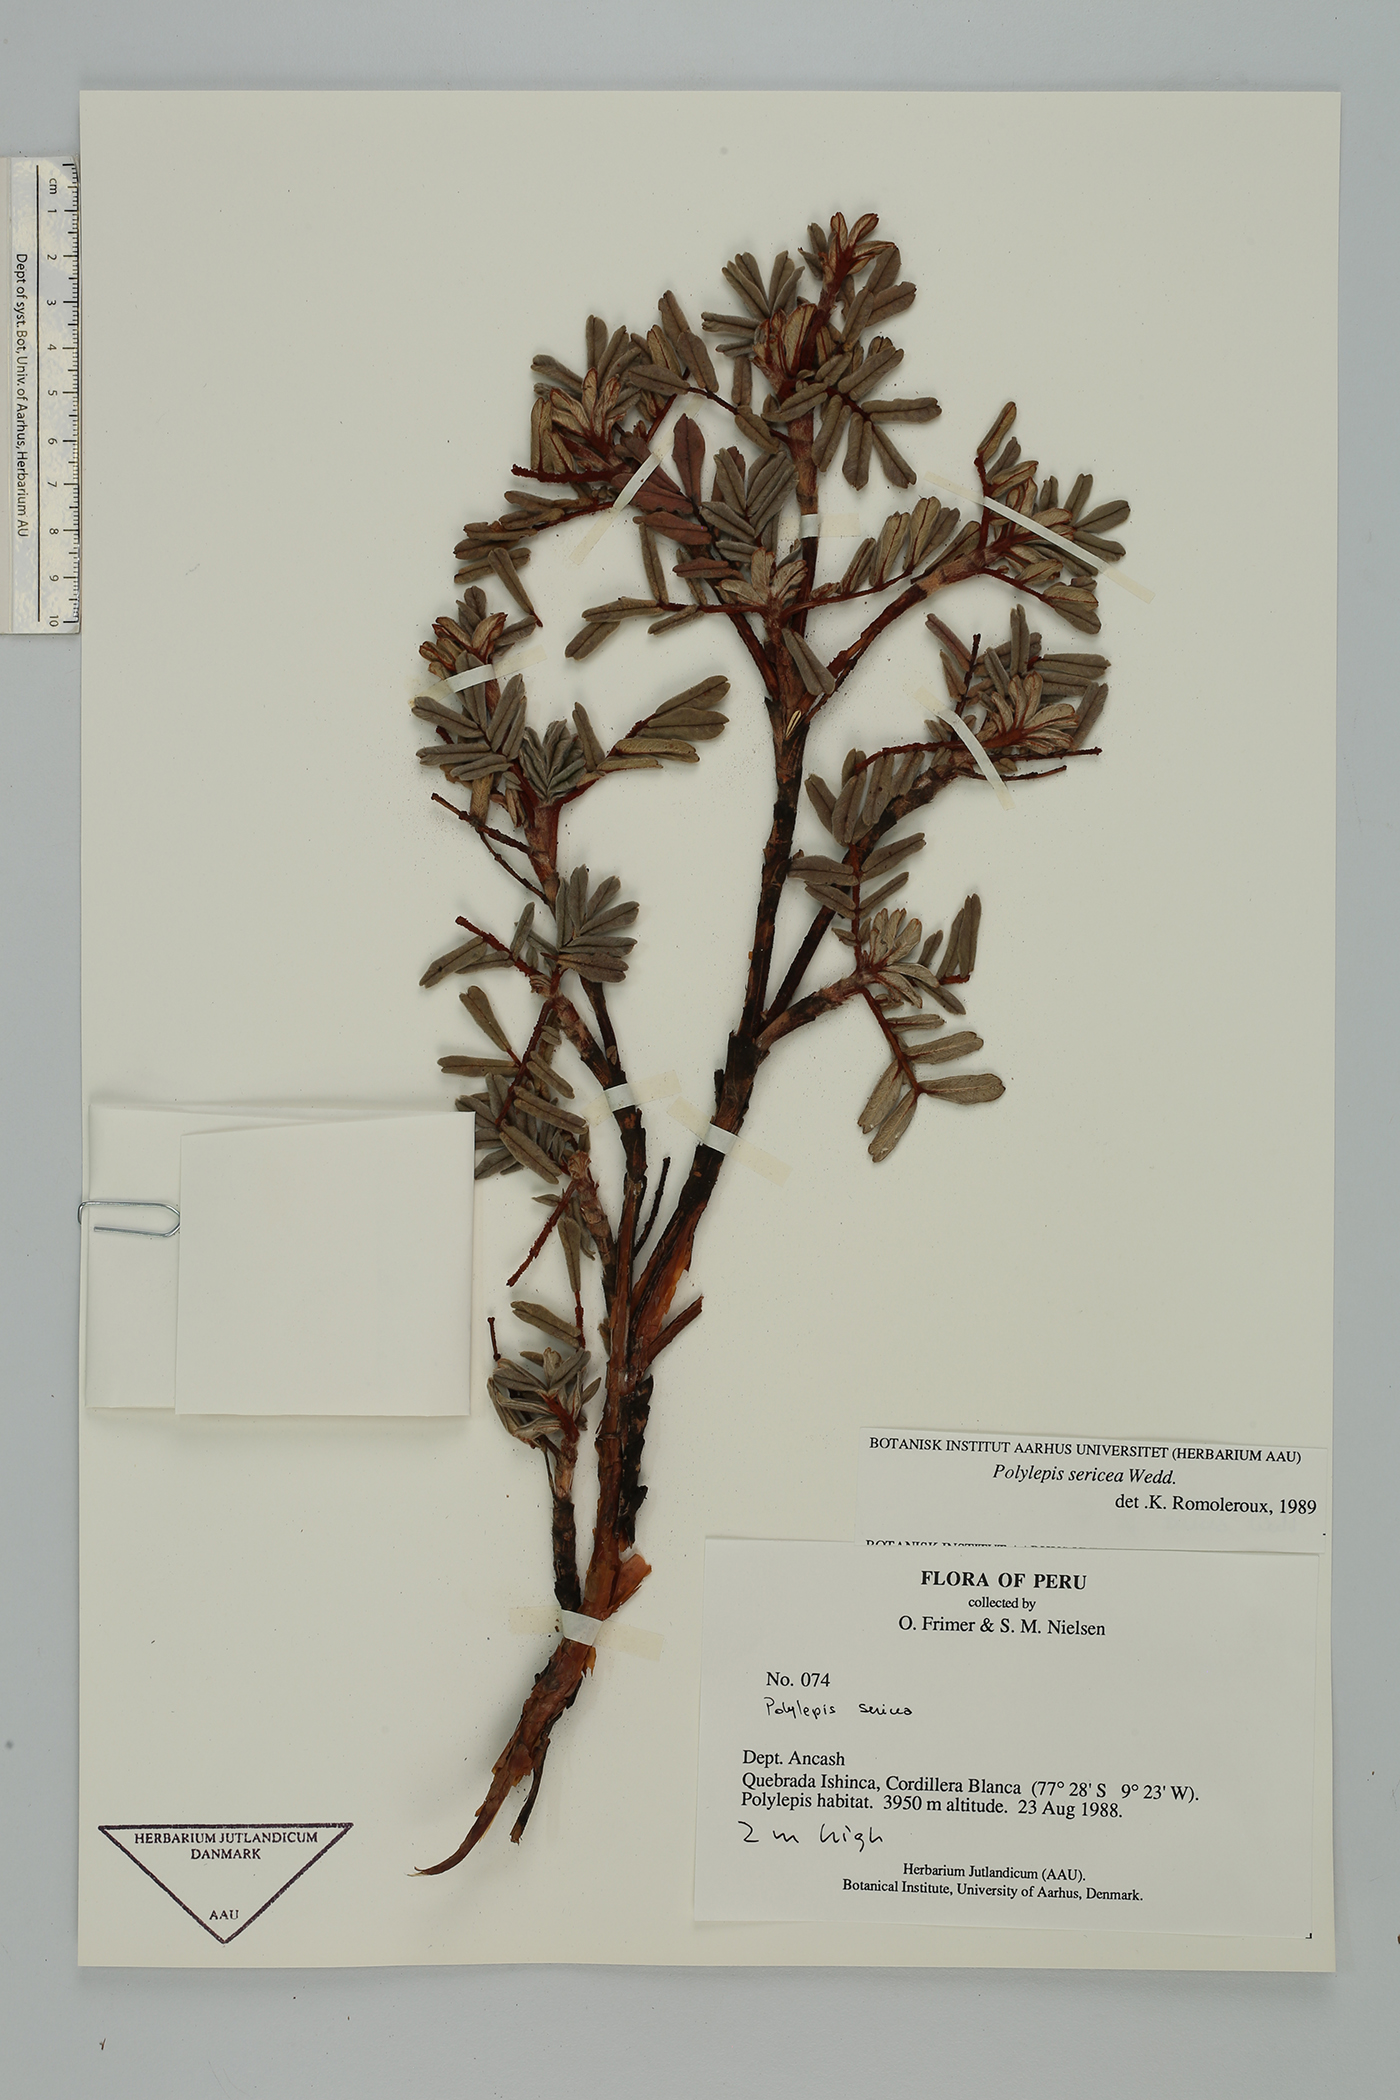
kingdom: Plantae
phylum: Tracheophyta
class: Magnoliopsida
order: Rosales
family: Rosaceae
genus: Polylepis
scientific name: Polylepis sericea
